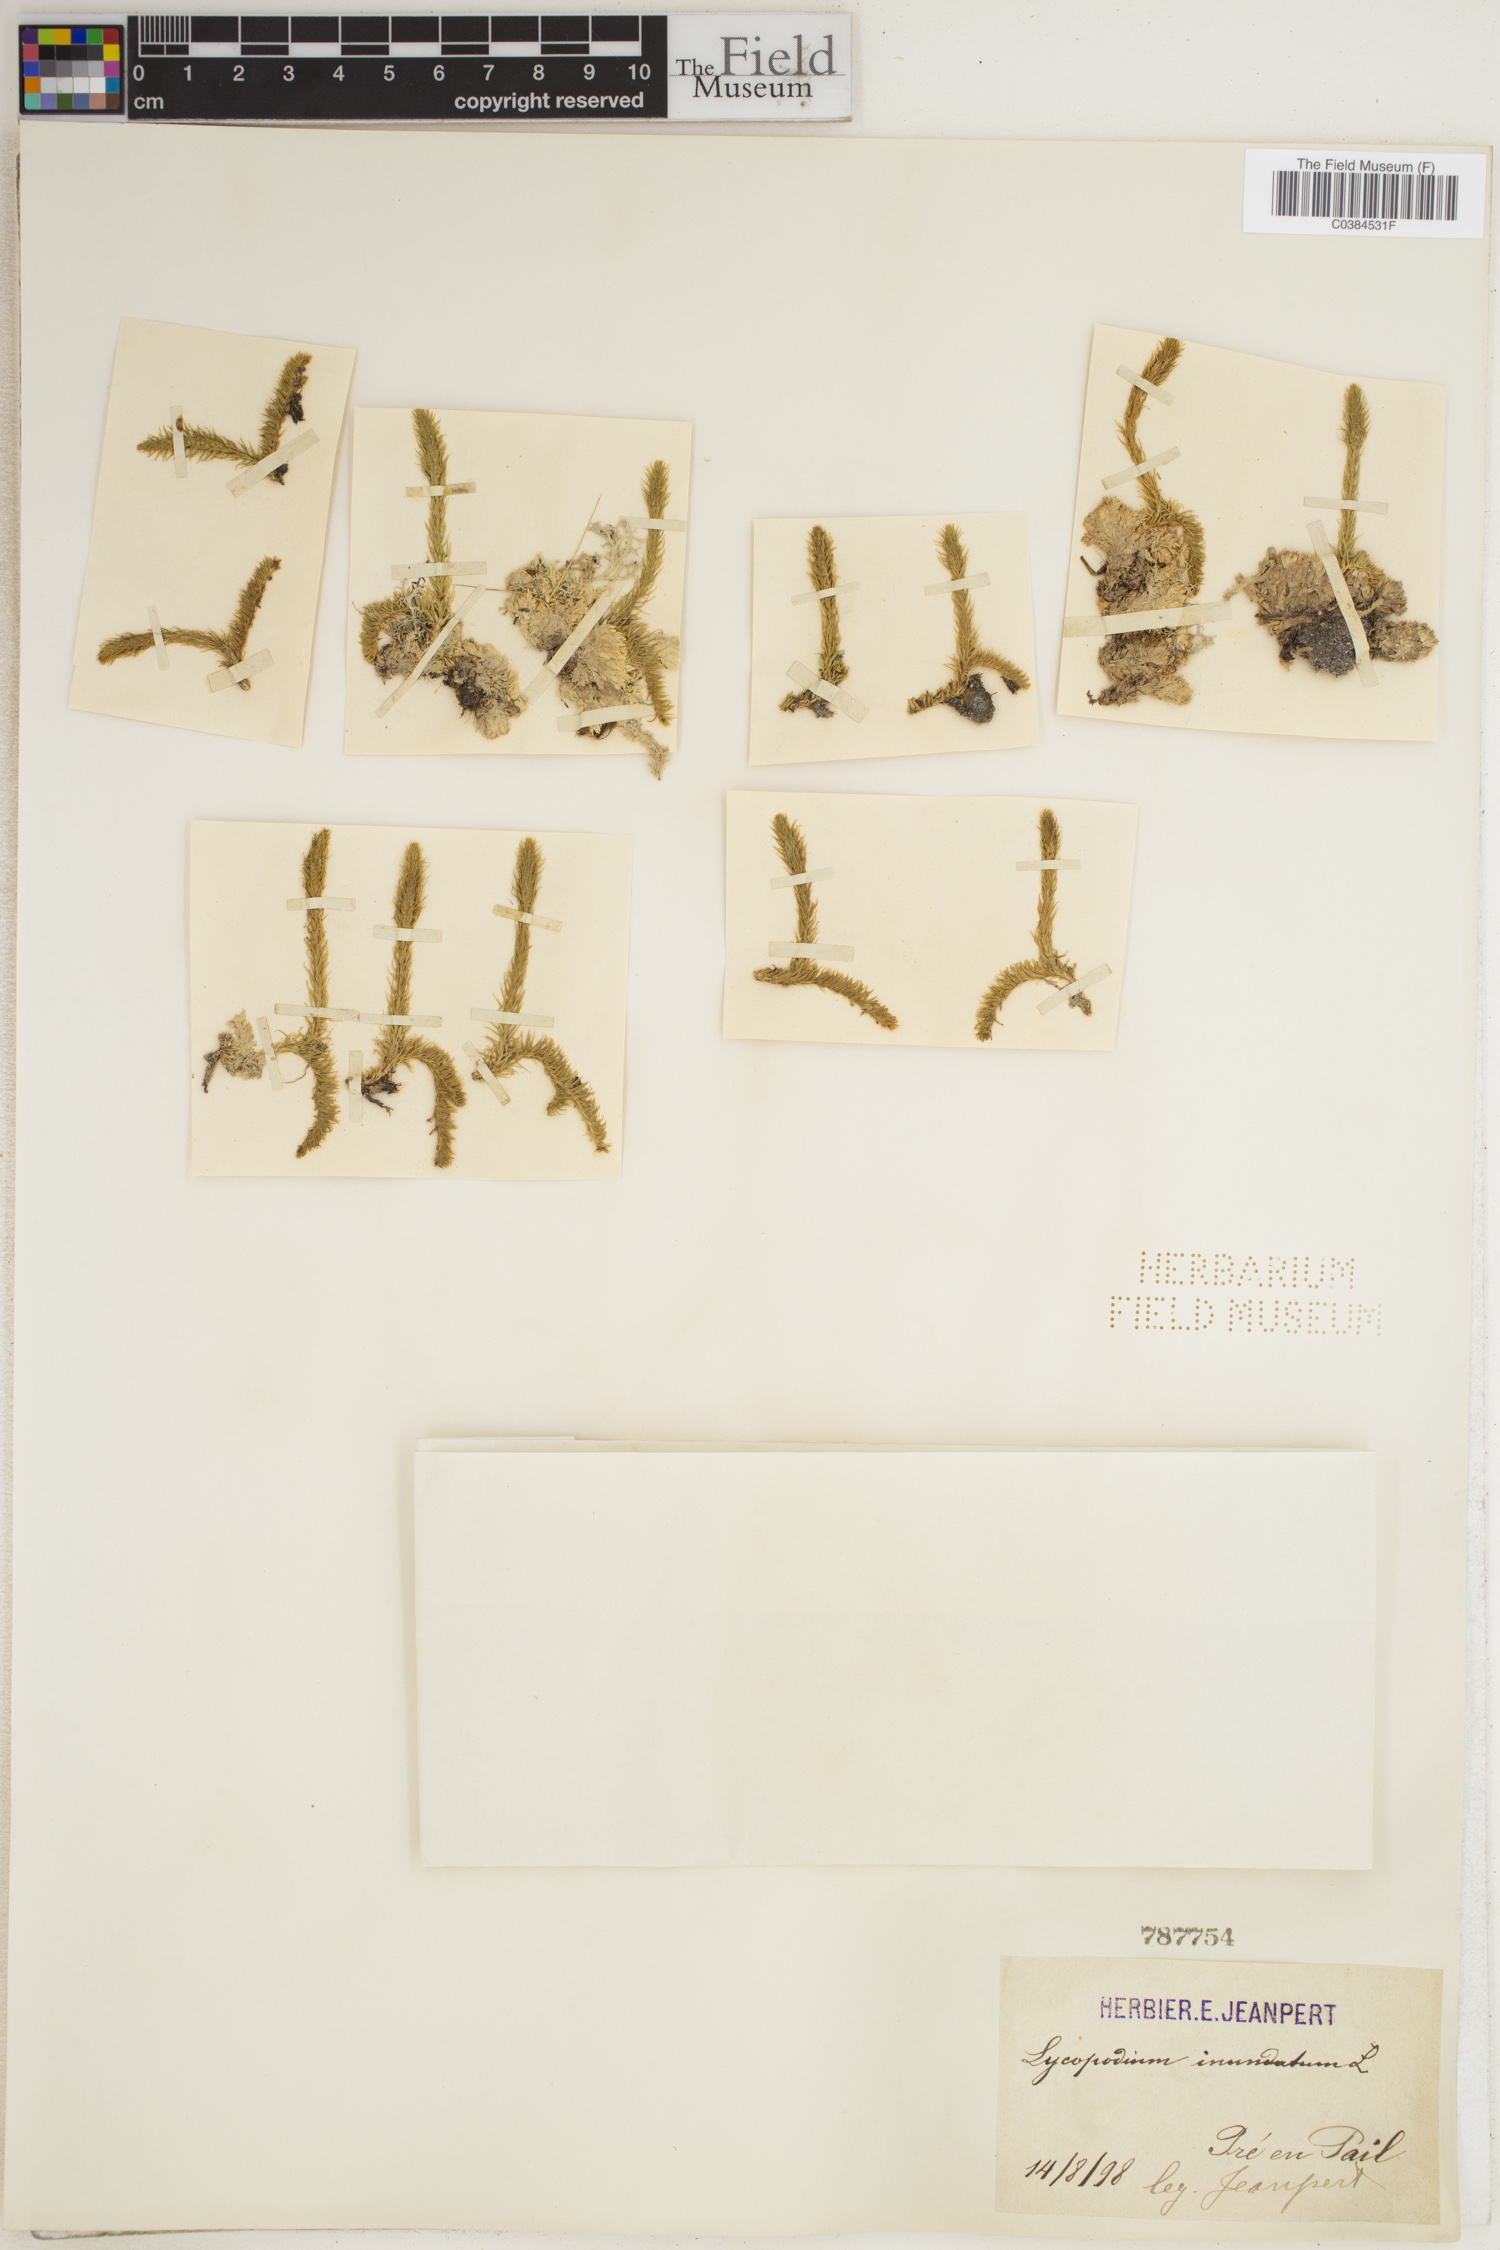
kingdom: Plantae
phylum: Tracheophyta
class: Lycopodiopsida
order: Lycopodiales
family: Lycopodiaceae
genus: Lycopodiella
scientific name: Lycopodiella inundata
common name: Marsh clubmoss
